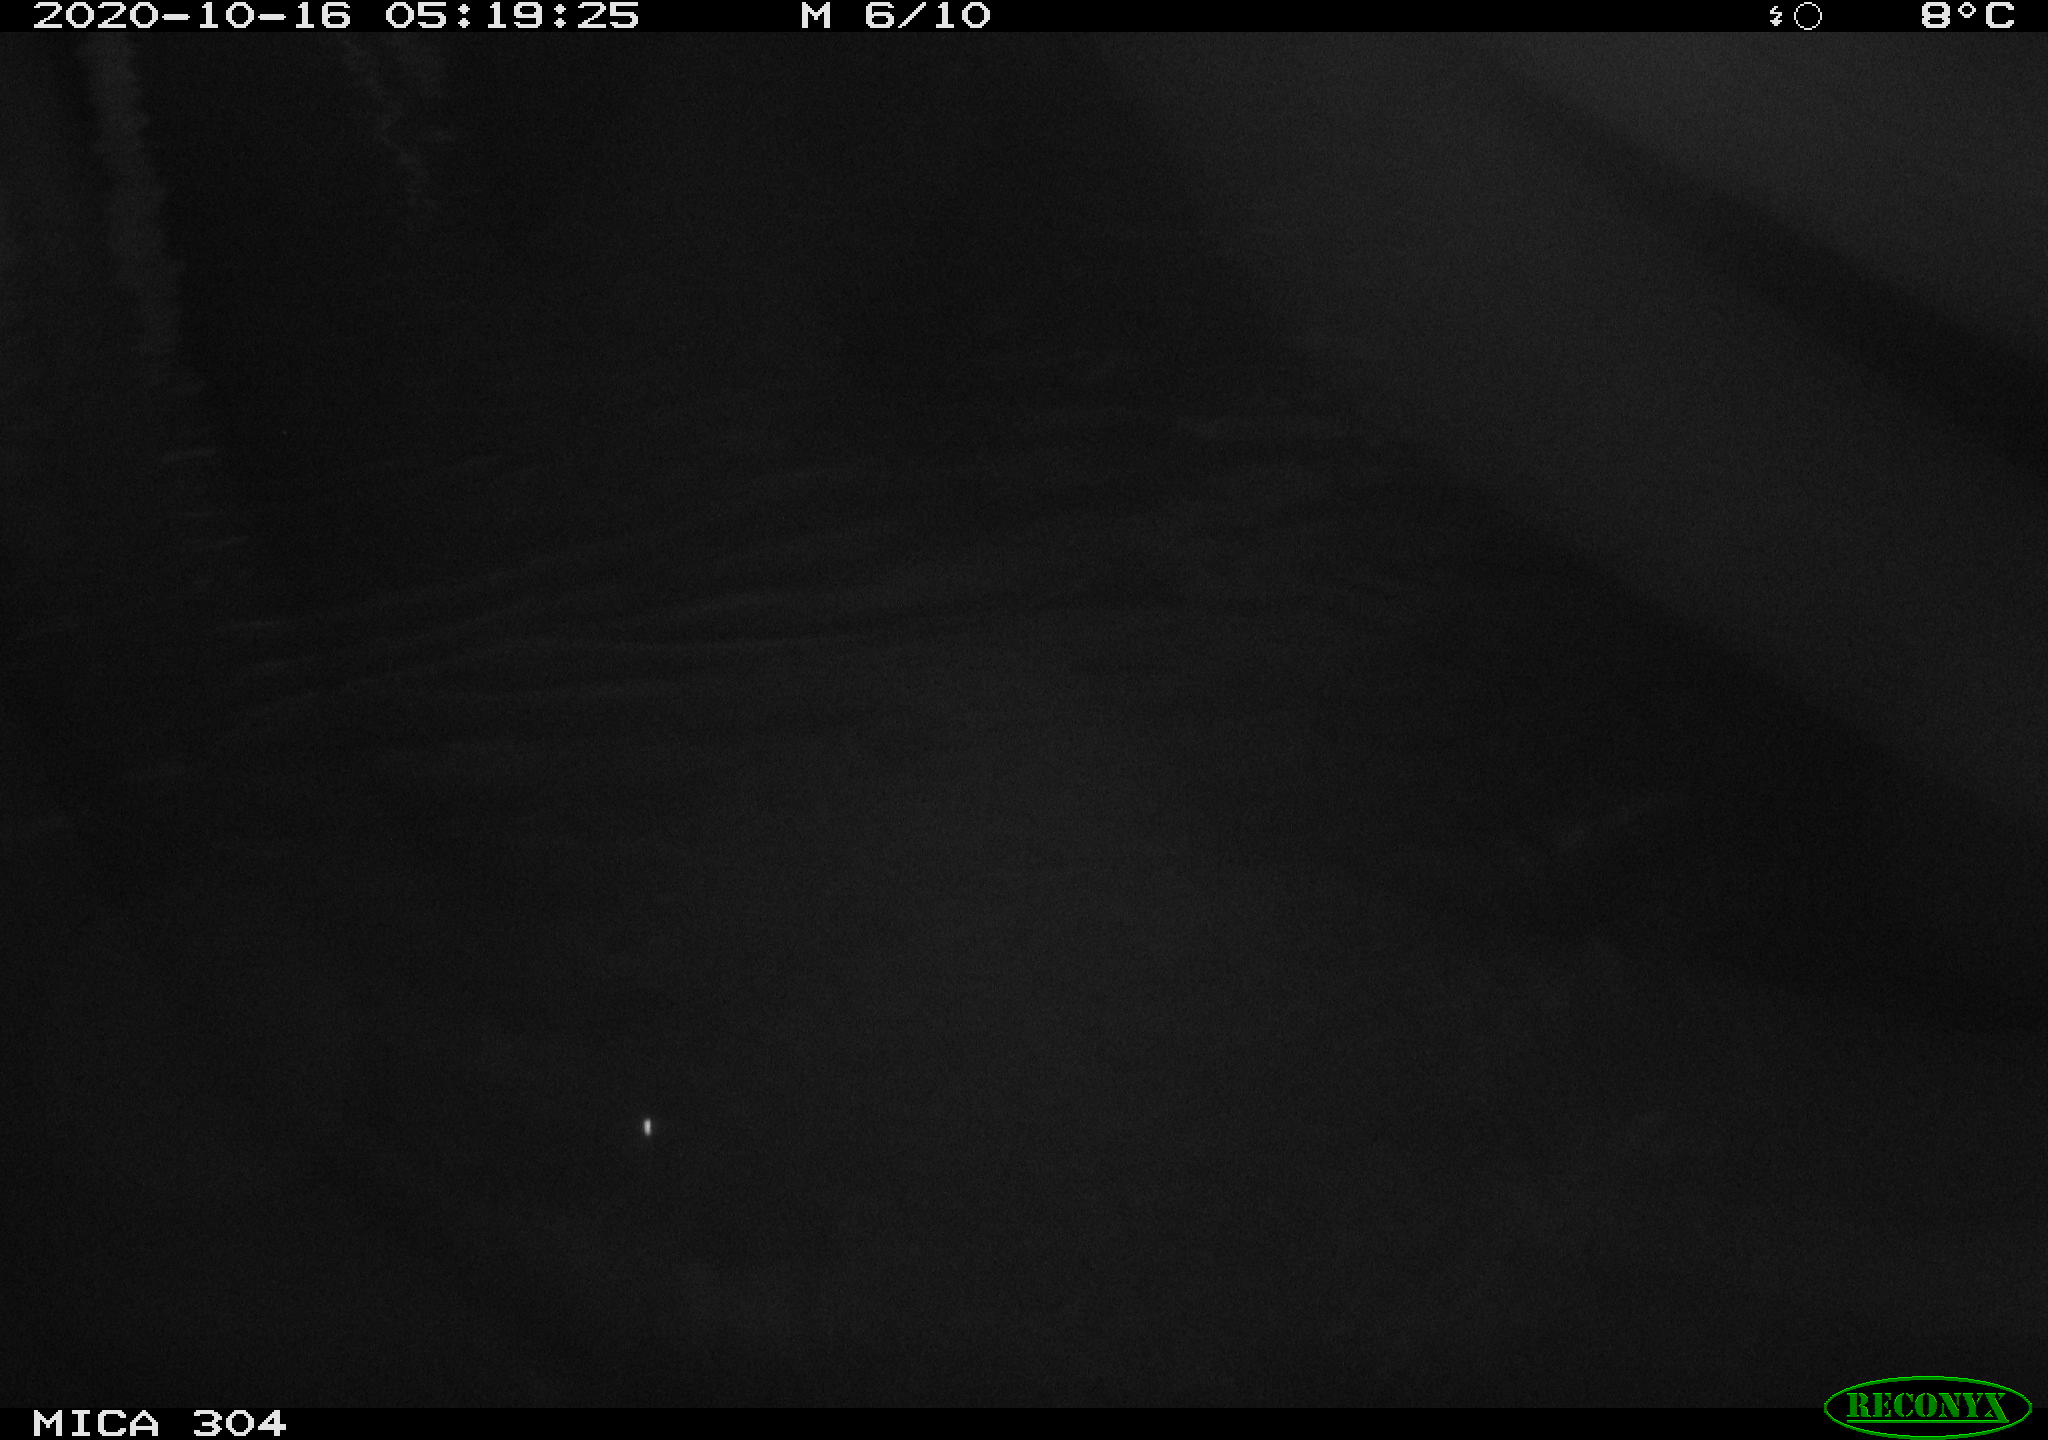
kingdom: Animalia
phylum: Chordata
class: Mammalia
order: Rodentia
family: Cricetidae
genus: Ondatra
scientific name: Ondatra zibethicus
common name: Muskrat
